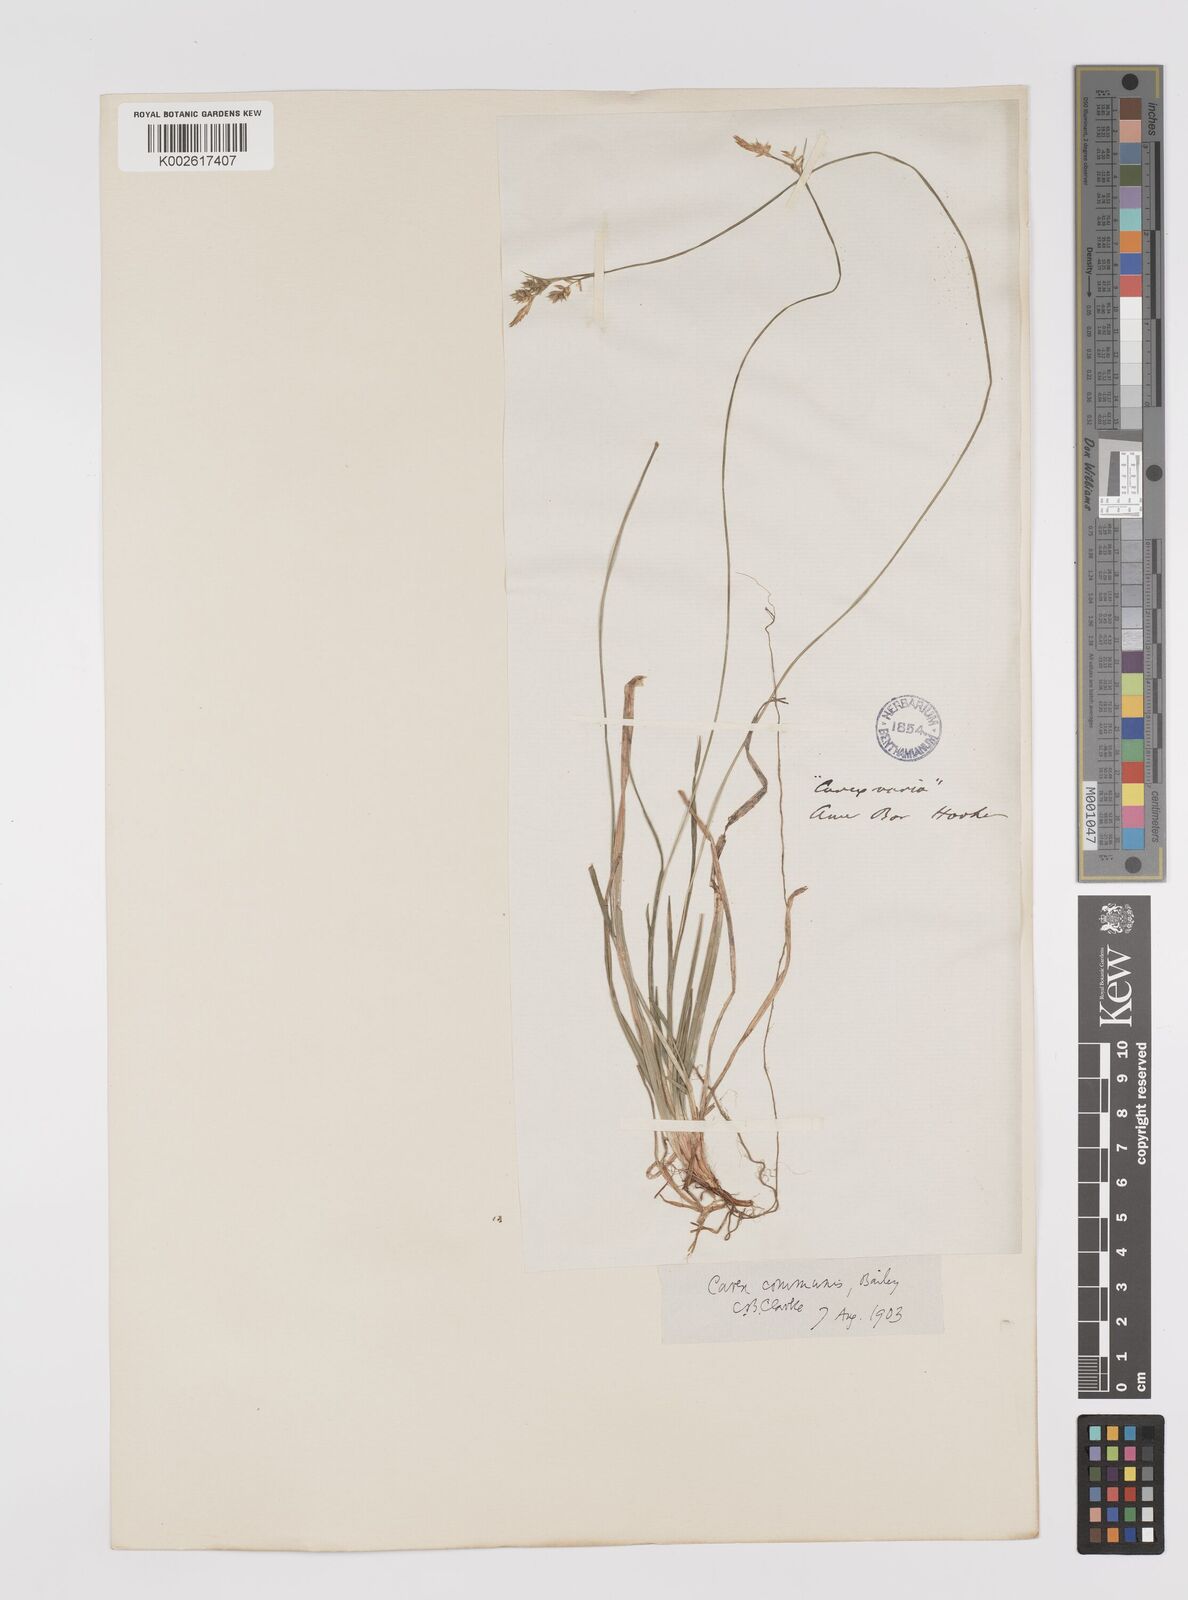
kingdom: Plantae
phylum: Tracheophyta
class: Liliopsida
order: Poales
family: Cyperaceae
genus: Carex
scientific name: Carex communis
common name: Colonial oak sedge
